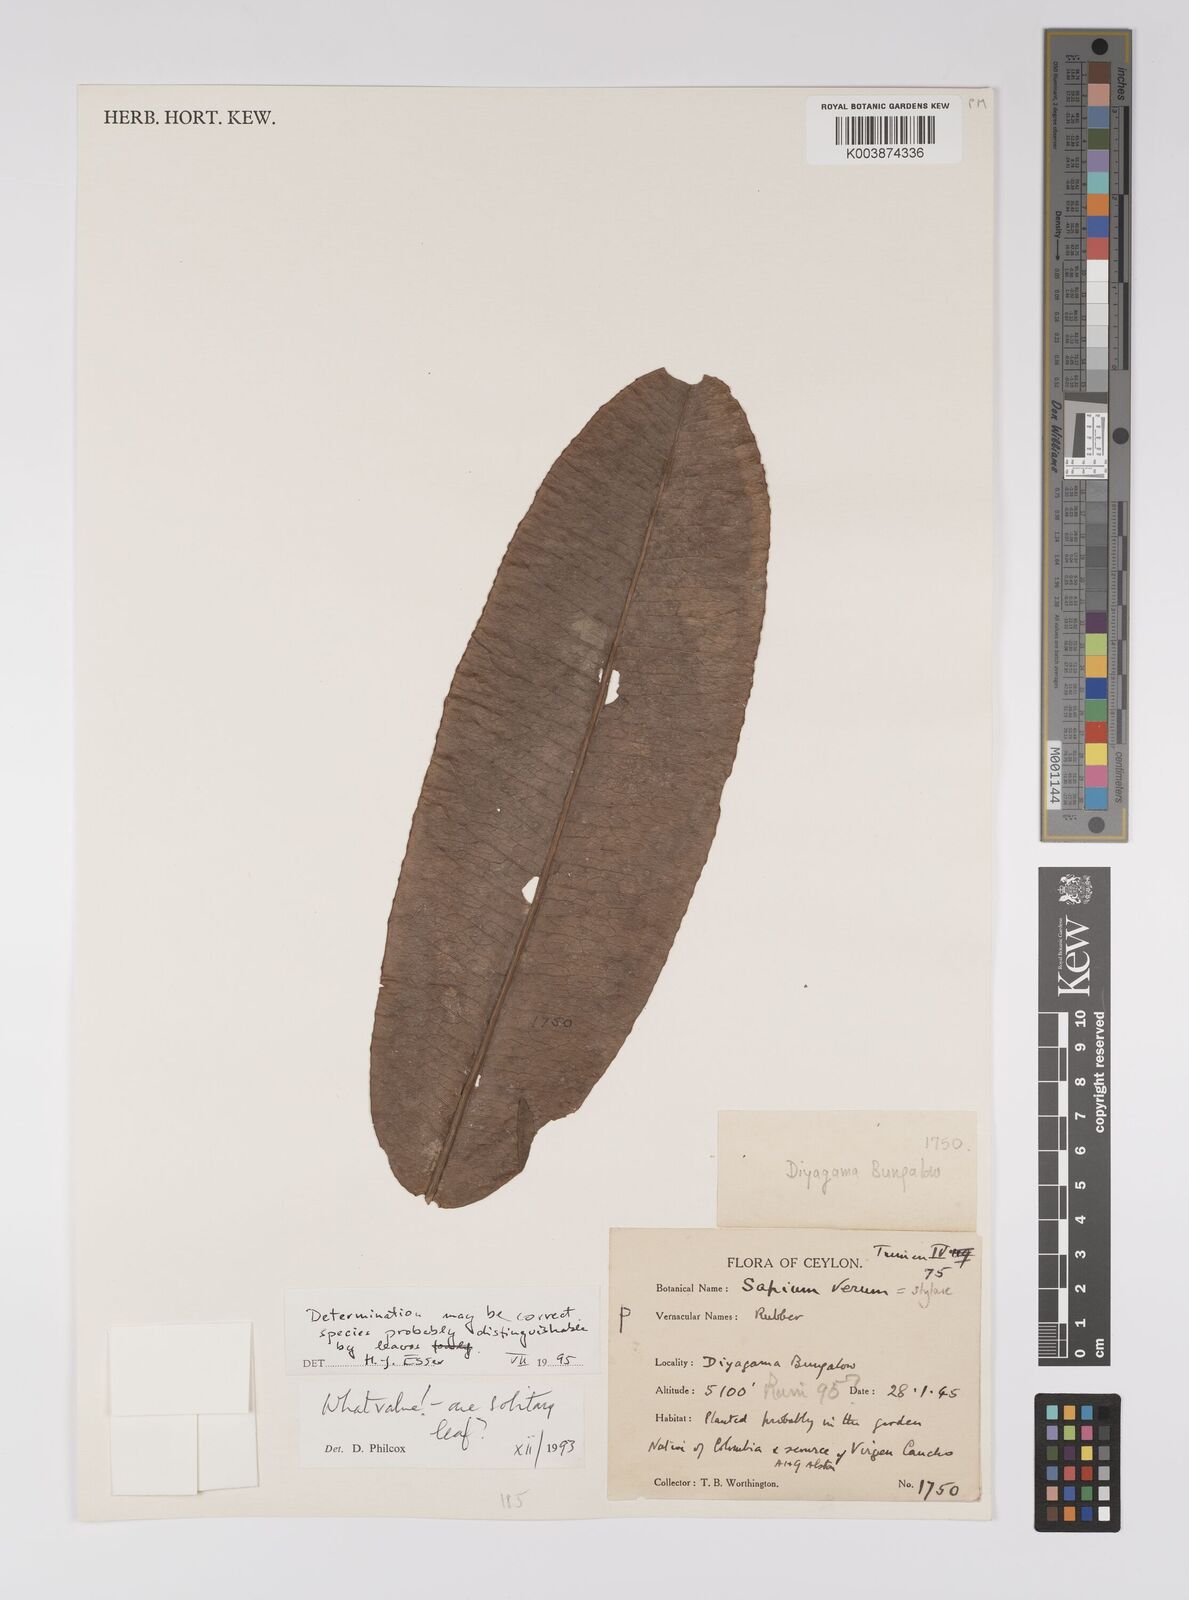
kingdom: Plantae
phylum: Tracheophyta
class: Magnoliopsida
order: Malpighiales
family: Euphorbiaceae
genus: Sapium
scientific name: Sapium stylare
